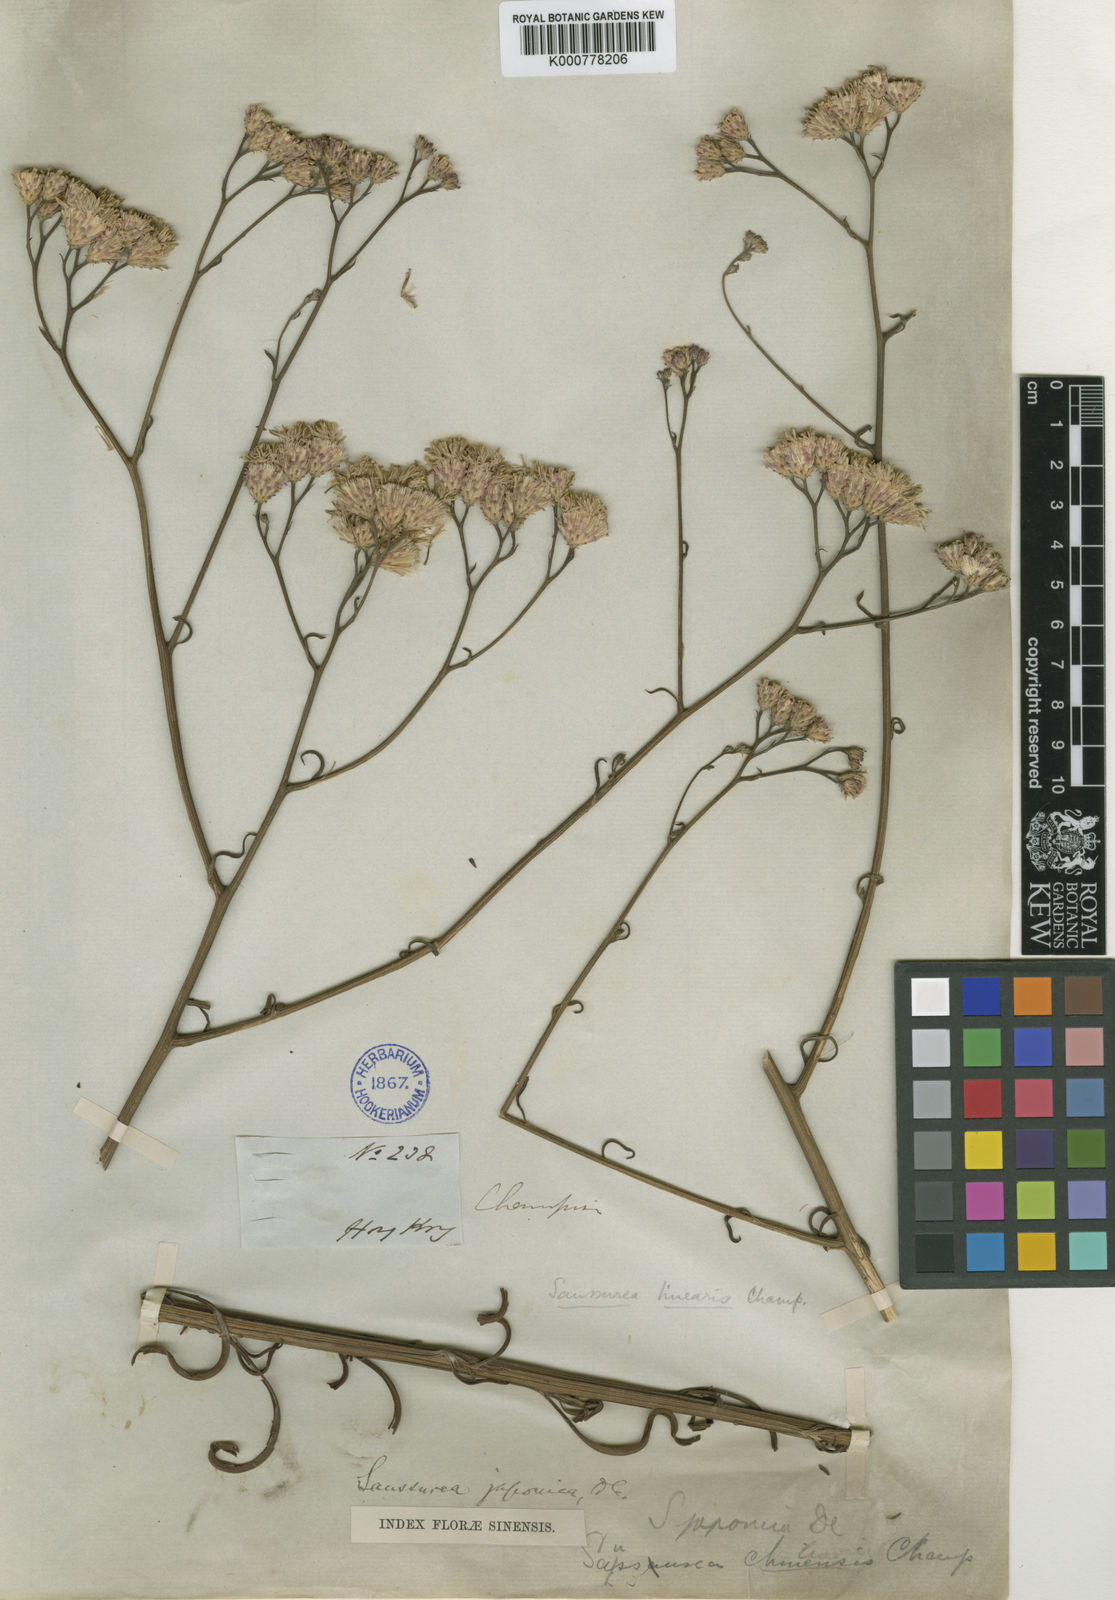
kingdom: Plantae
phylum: Tracheophyta
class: Magnoliopsida
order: Asterales
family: Asteraceae
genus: Cirsium
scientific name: Cirsium lineare
